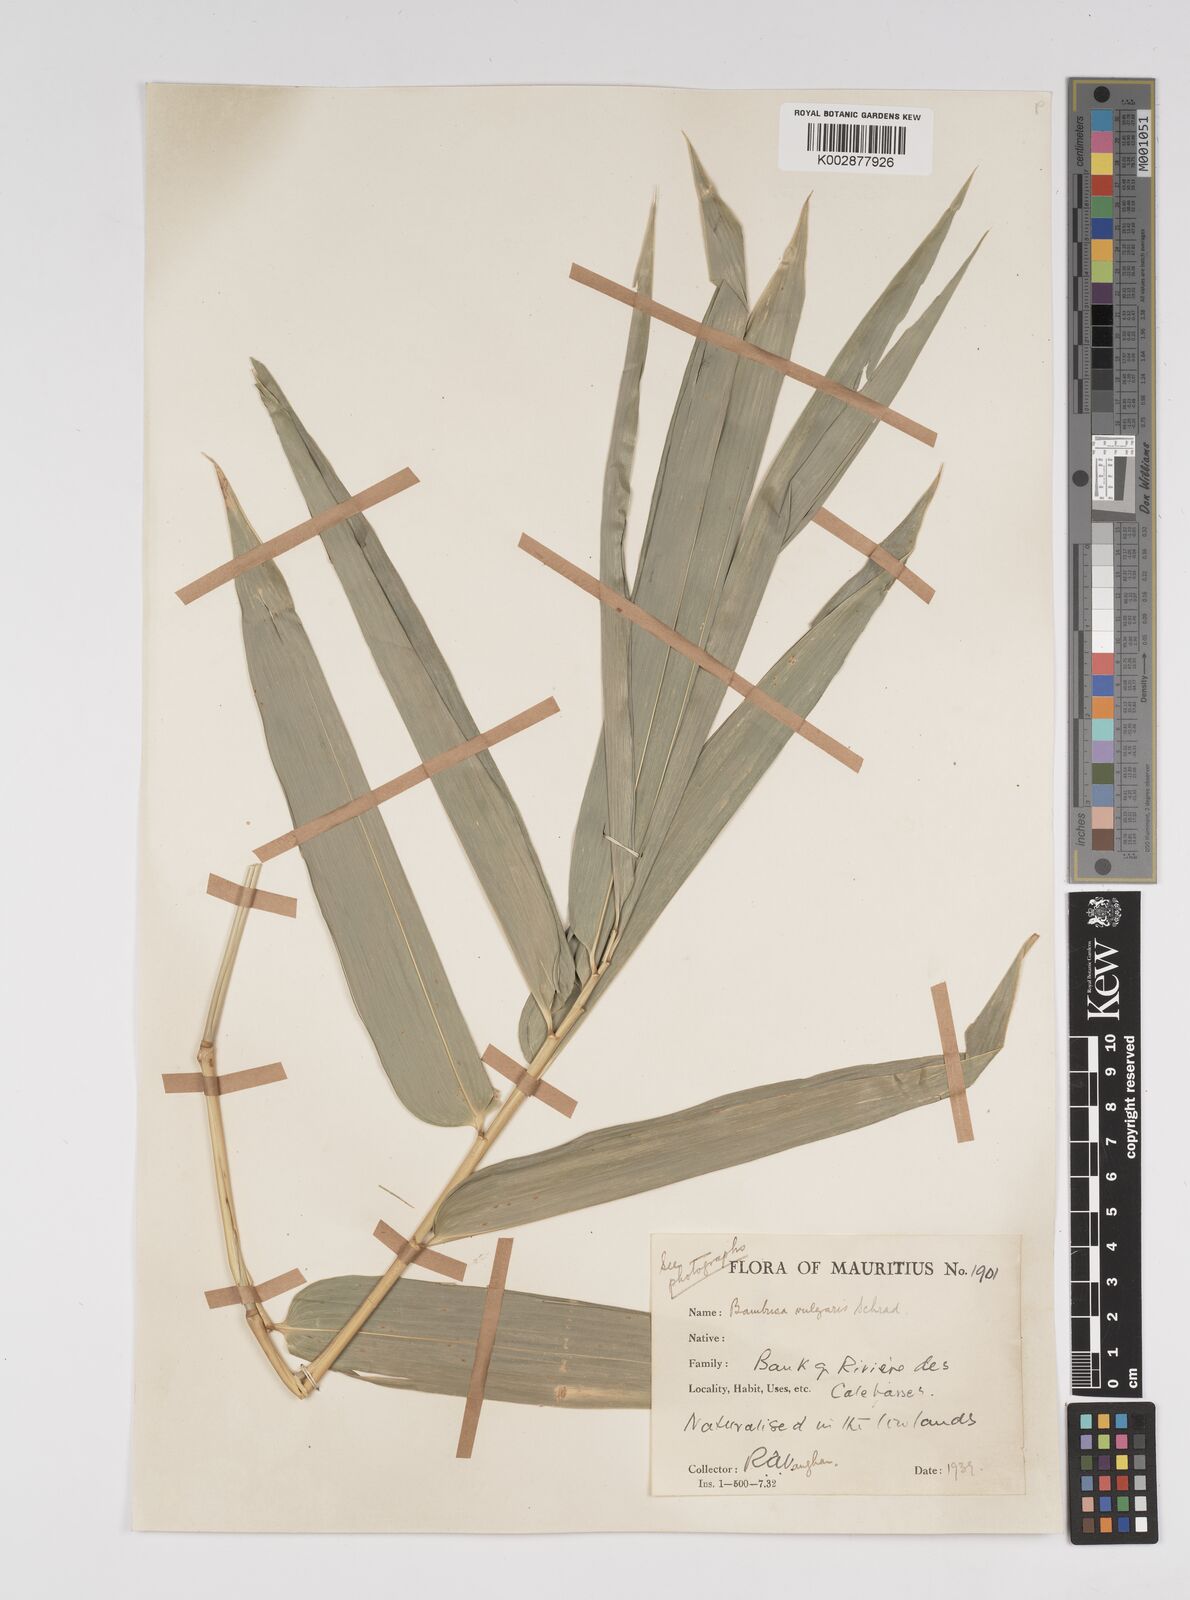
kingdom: Plantae
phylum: Tracheophyta
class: Liliopsida
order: Poales
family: Poaceae
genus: Bambusa
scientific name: Bambusa vulgaris
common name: Common bamboo
